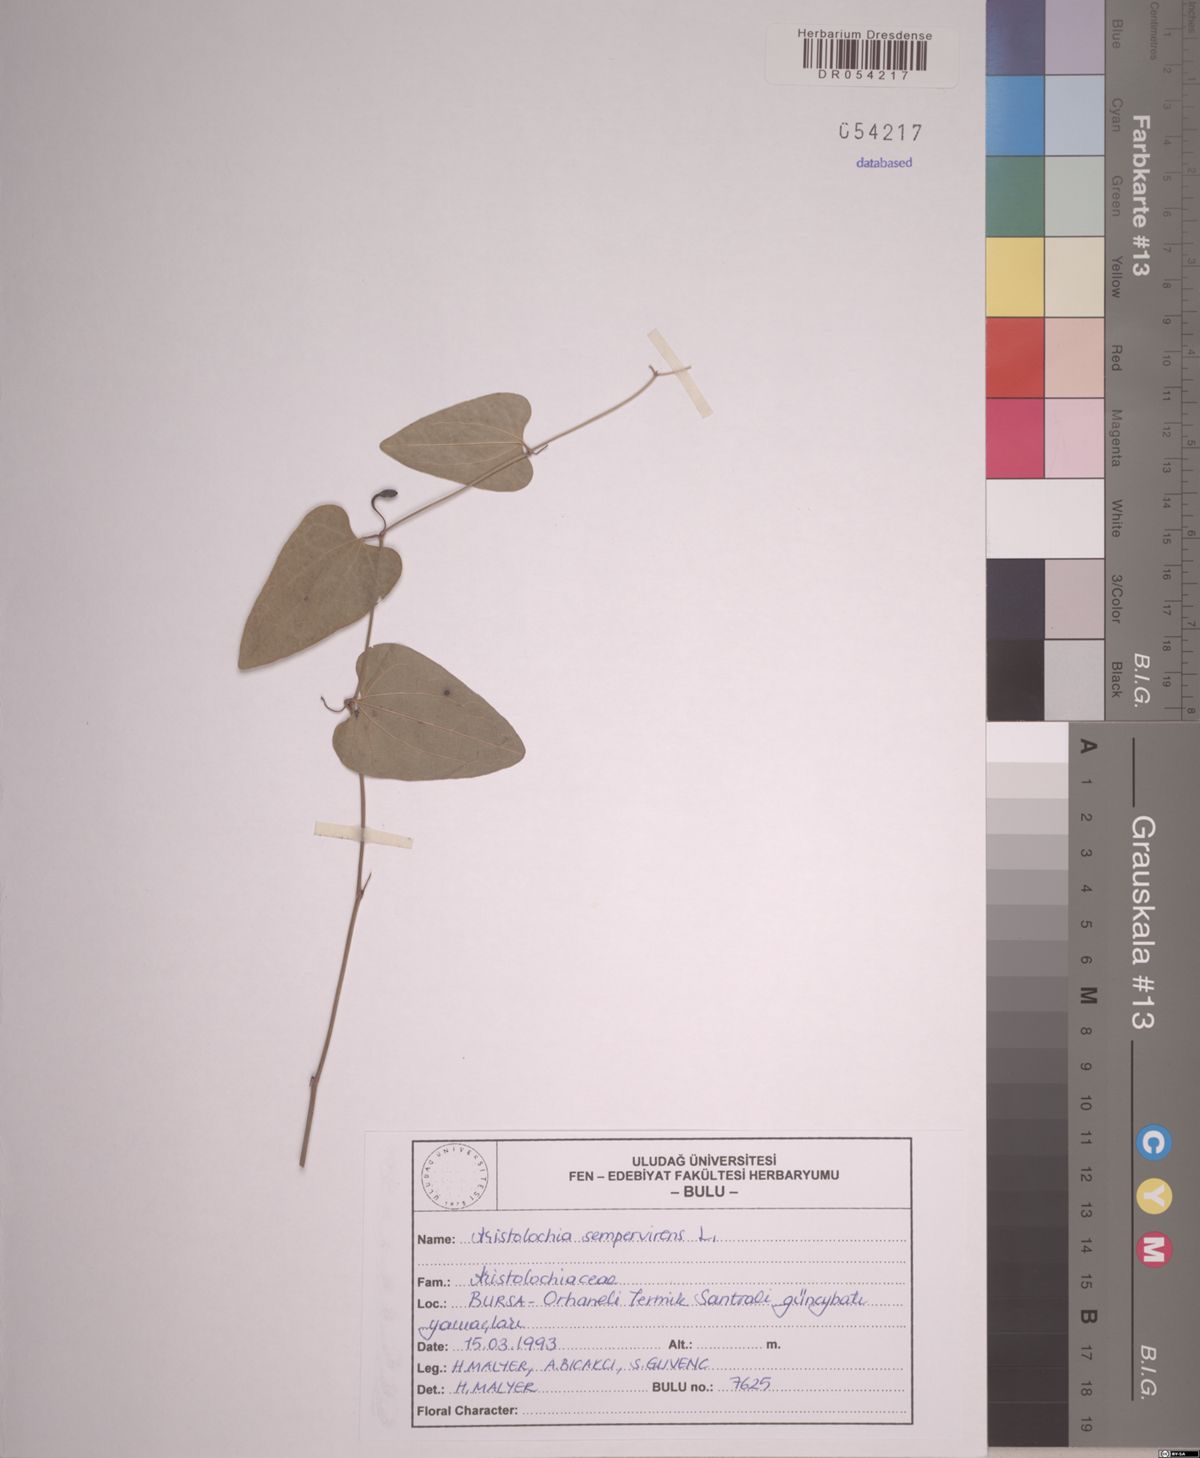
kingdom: Plantae
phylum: Tracheophyta
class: Magnoliopsida
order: Piperales
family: Aristolochiaceae
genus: Aristolochia
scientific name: Aristolochia sempervirens
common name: Long birthwort
